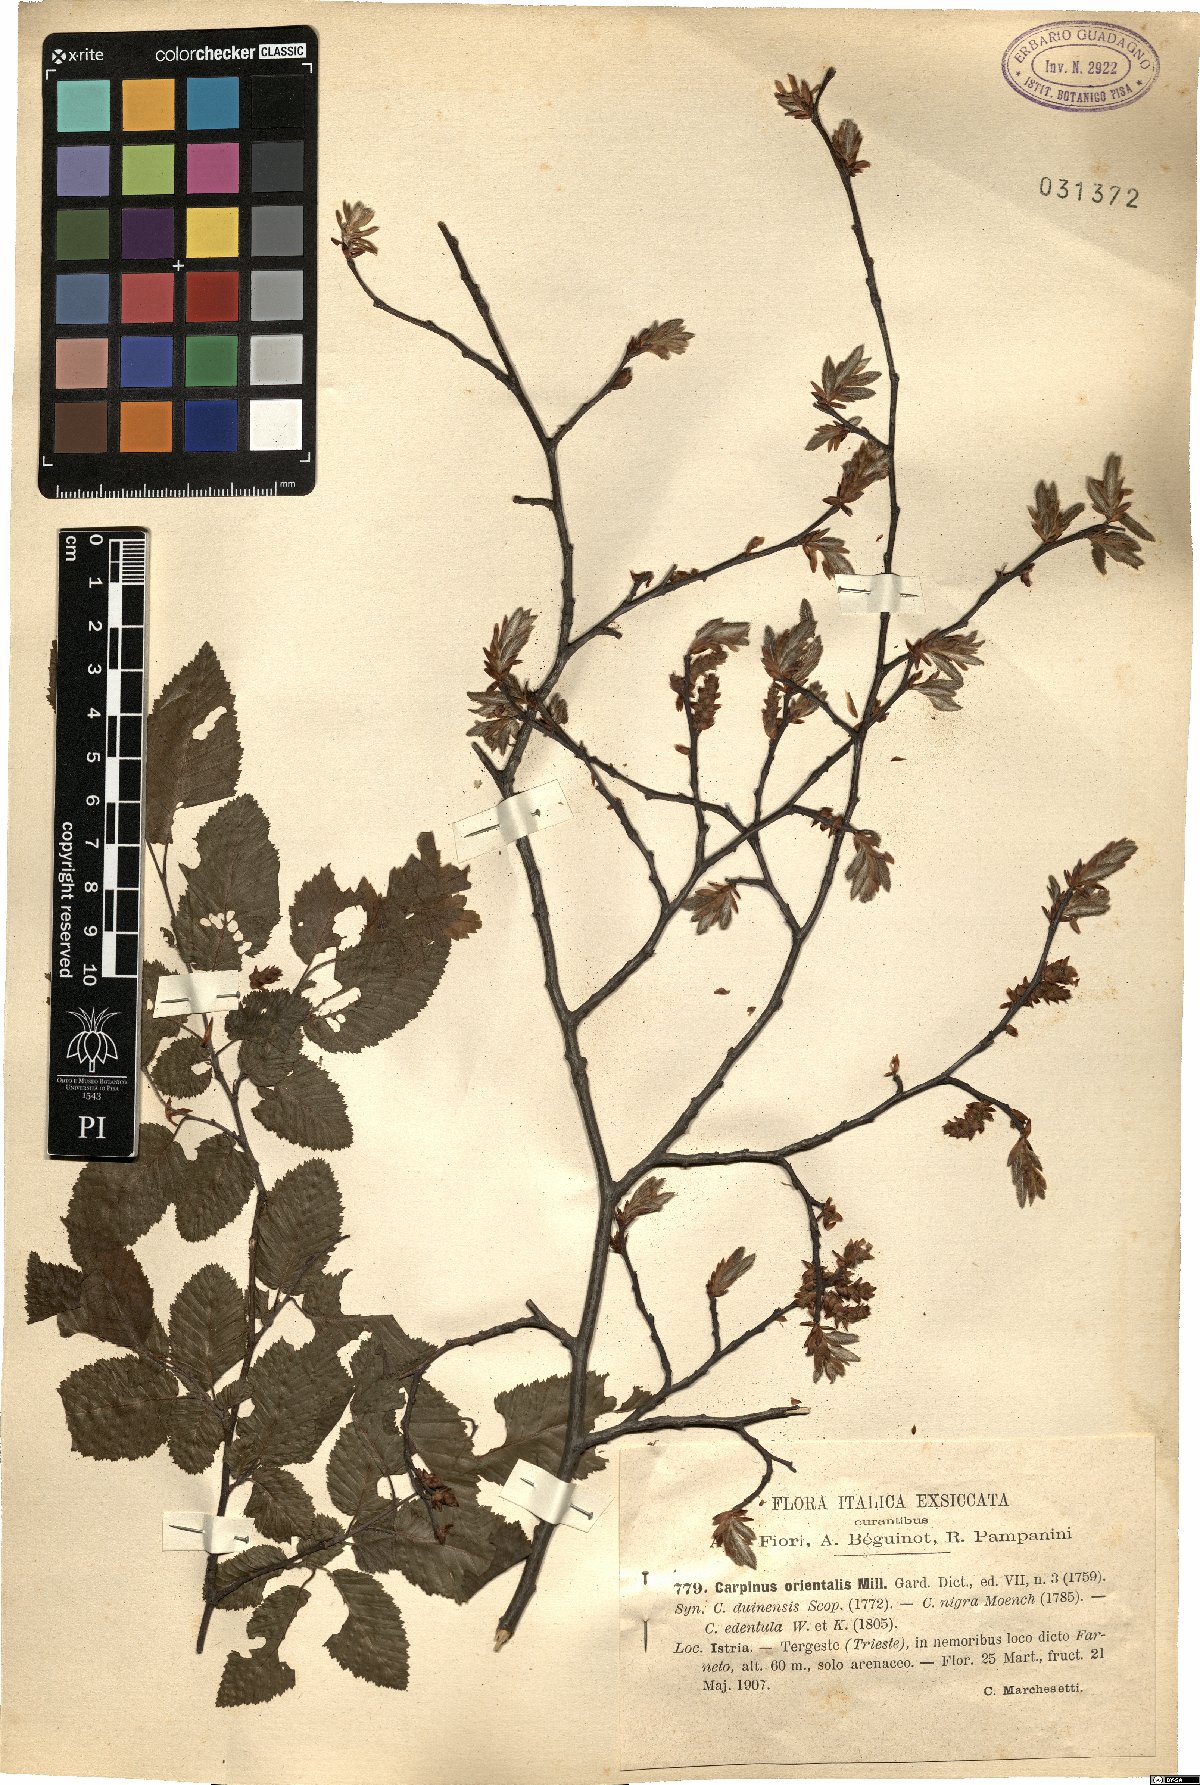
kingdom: Plantae
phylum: Tracheophyta
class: Magnoliopsida
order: Fagales
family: Betulaceae
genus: Carpinus
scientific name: Carpinus orientalis
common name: Eastern hornbeam
